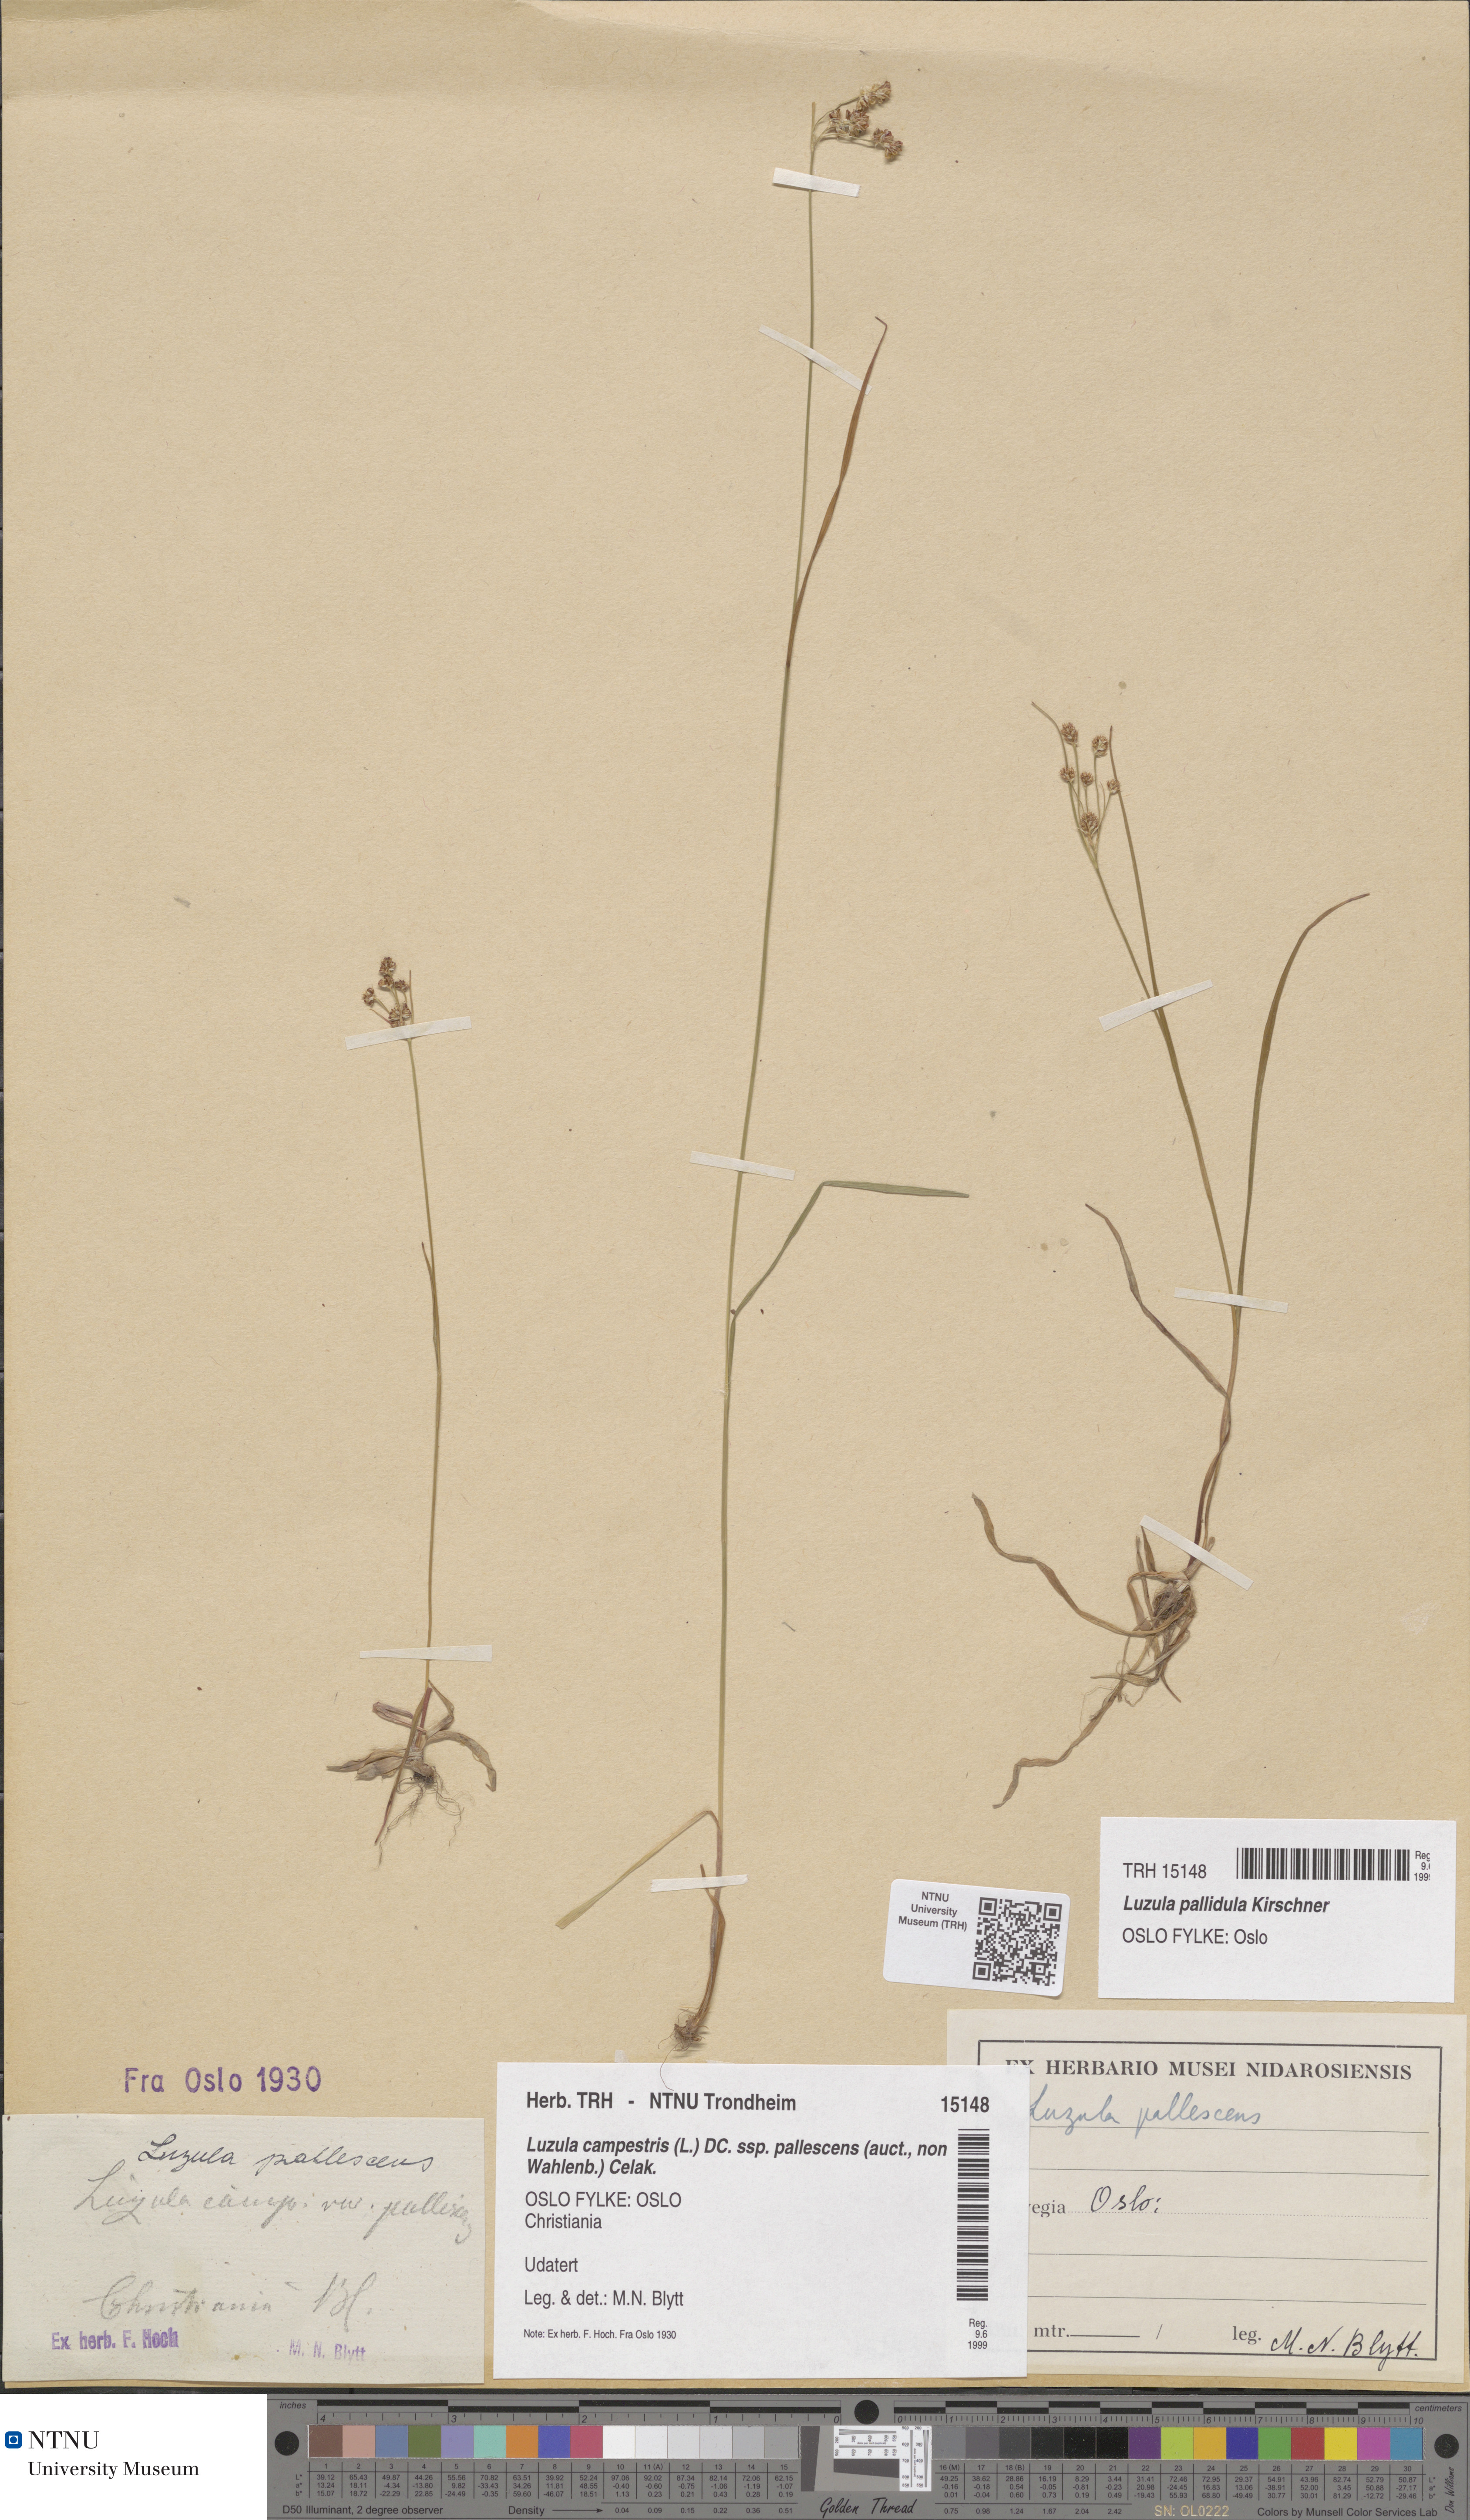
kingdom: Plantae
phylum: Tracheophyta
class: Liliopsida
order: Poales
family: Juncaceae
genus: Luzula
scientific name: Luzula pallescens
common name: Fen wood-rush
